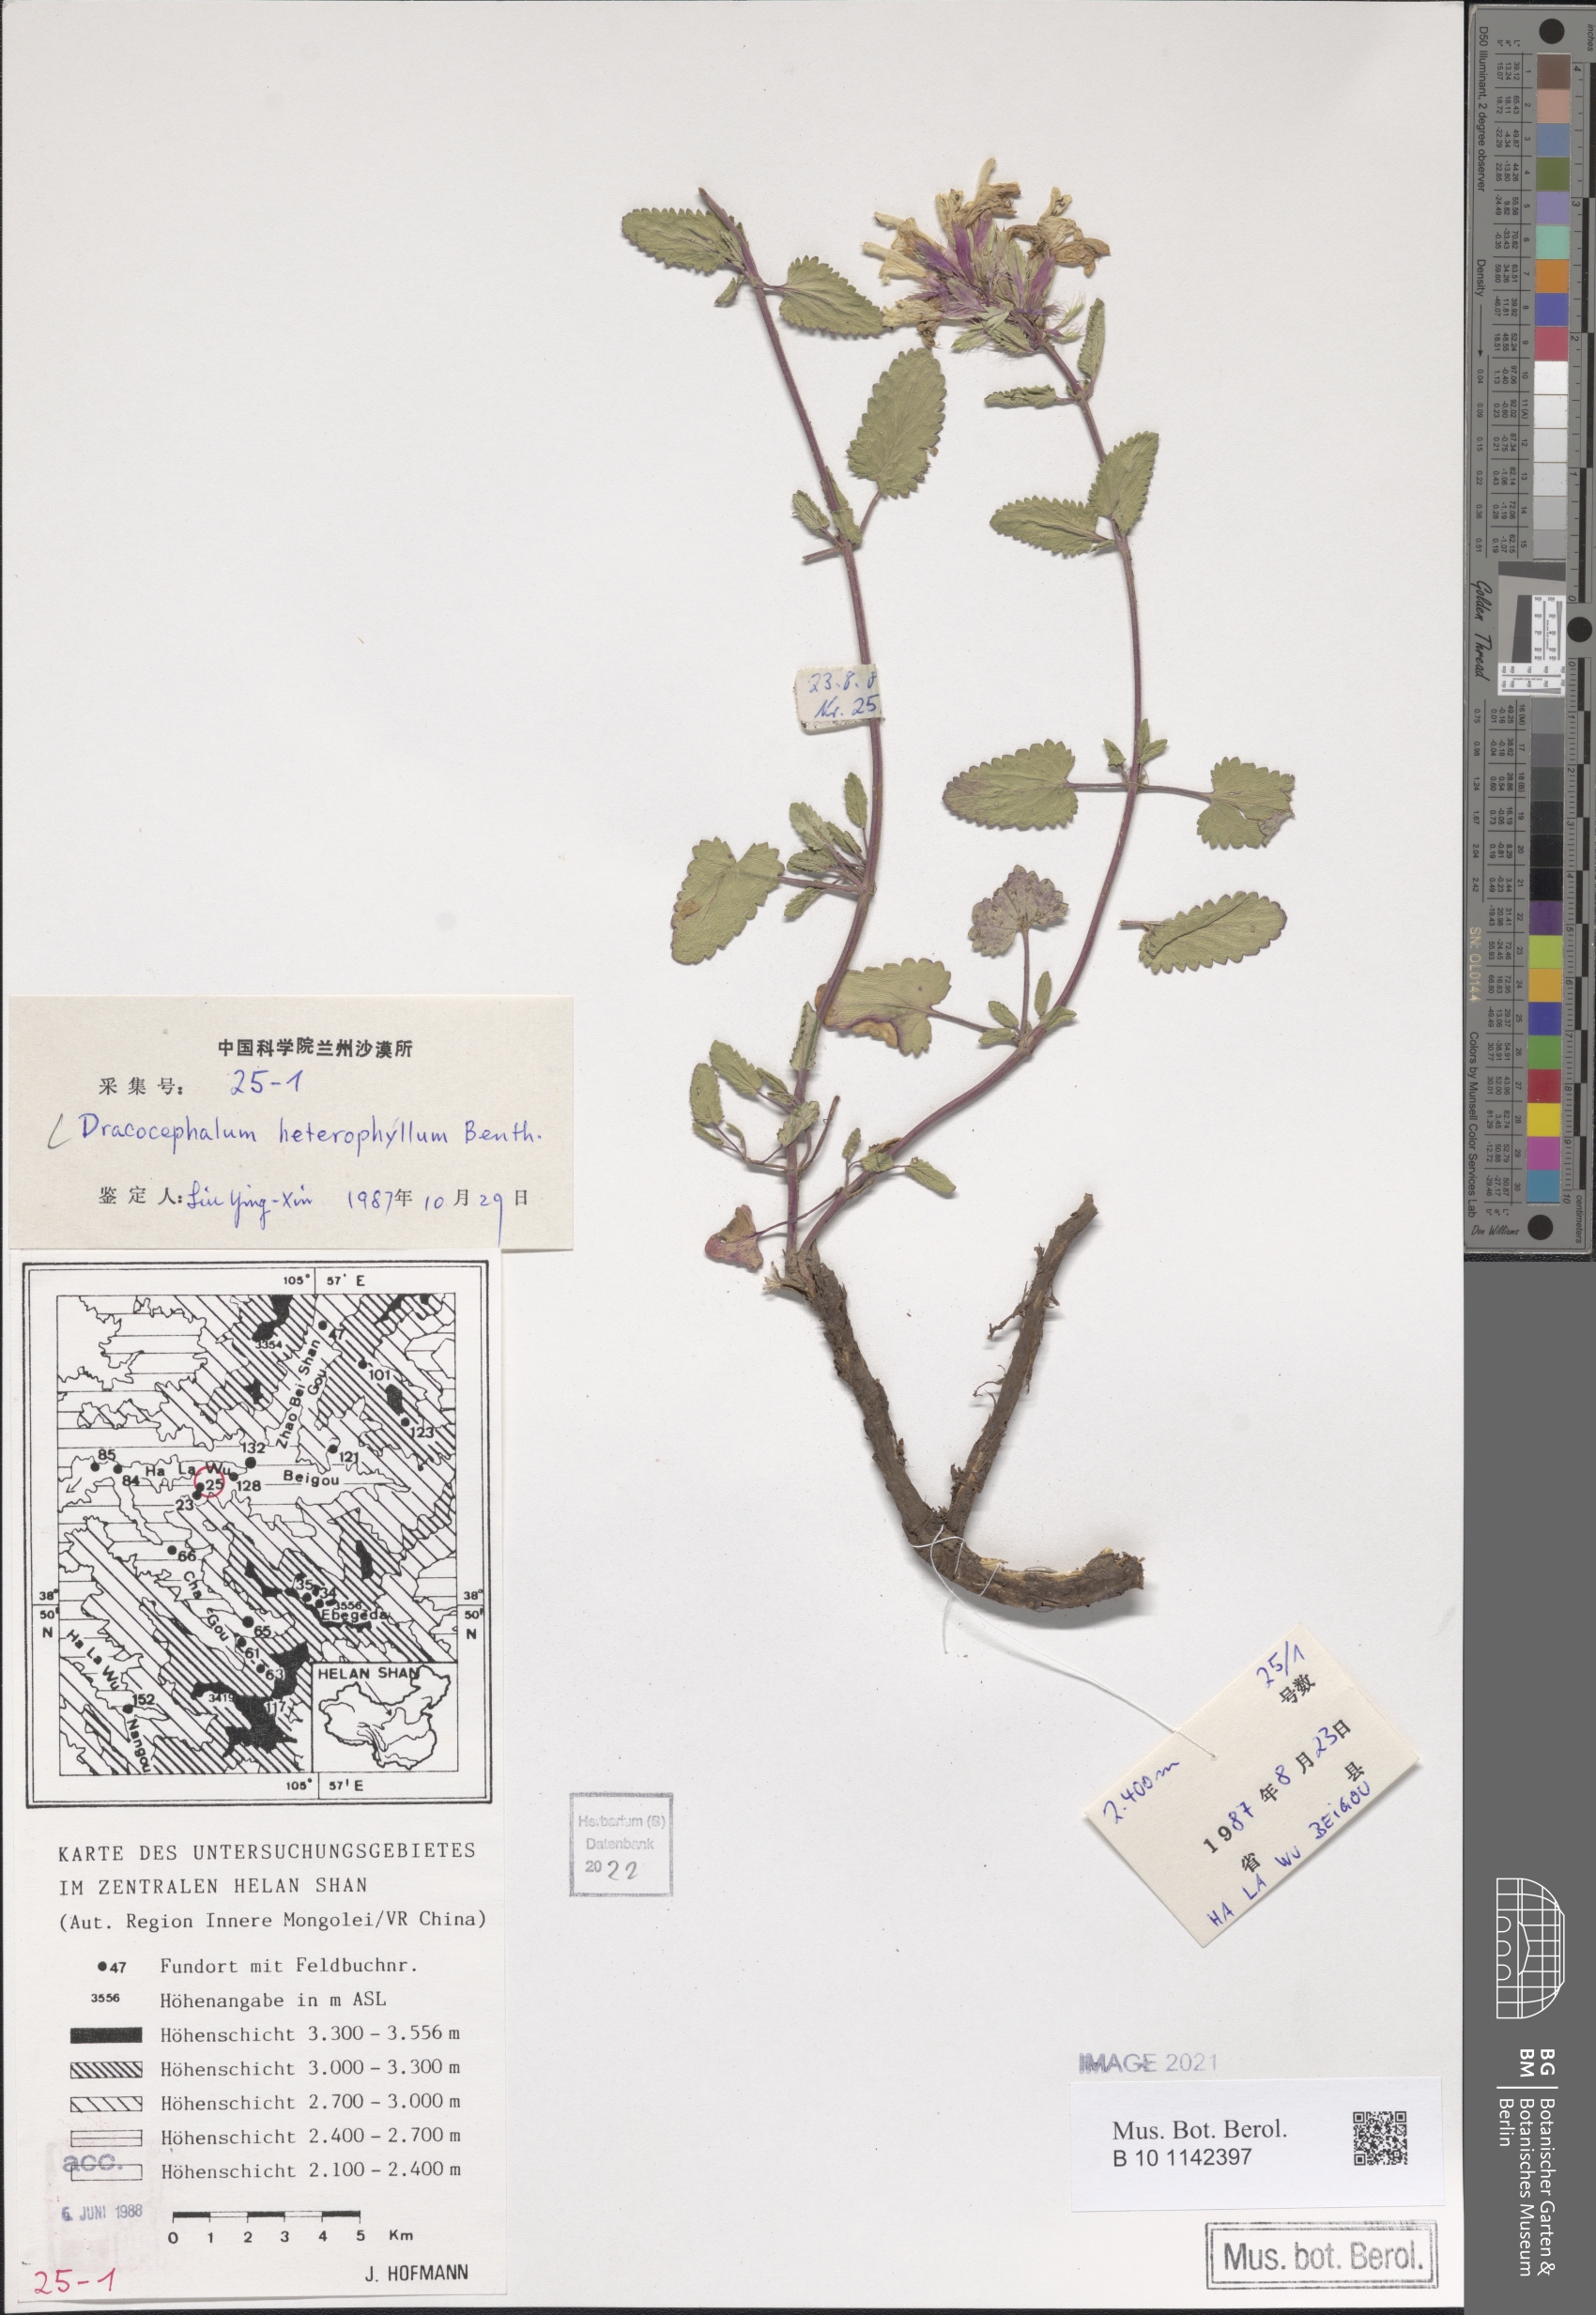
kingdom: Plantae
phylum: Tracheophyta
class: Magnoliopsida
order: Lamiales
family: Lamiaceae
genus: Dracocephalum
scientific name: Dracocephalum heterophyllum
